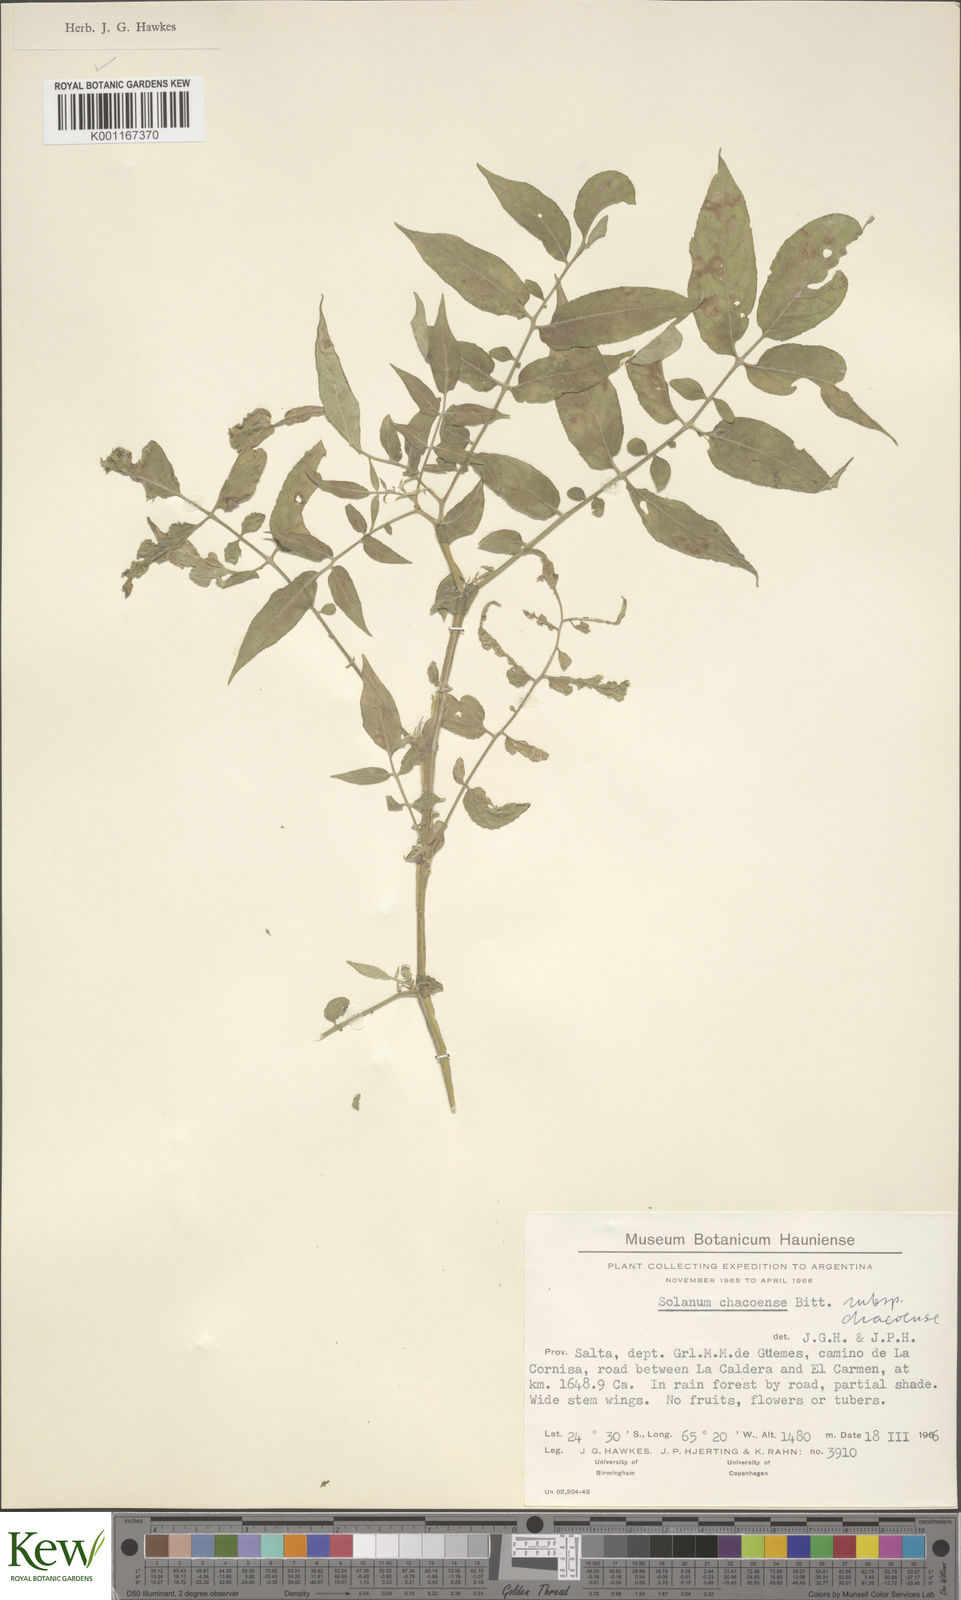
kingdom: Plantae
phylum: Tracheophyta
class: Magnoliopsida
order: Solanales
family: Solanaceae
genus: Solanum
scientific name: Solanum chacoense
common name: Chaco potato
